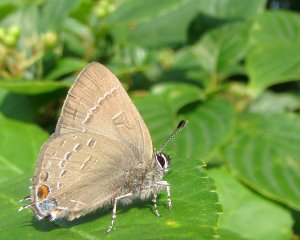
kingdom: Animalia
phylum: Arthropoda
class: Insecta
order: Lepidoptera
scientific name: Lepidoptera
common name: Butterflies
